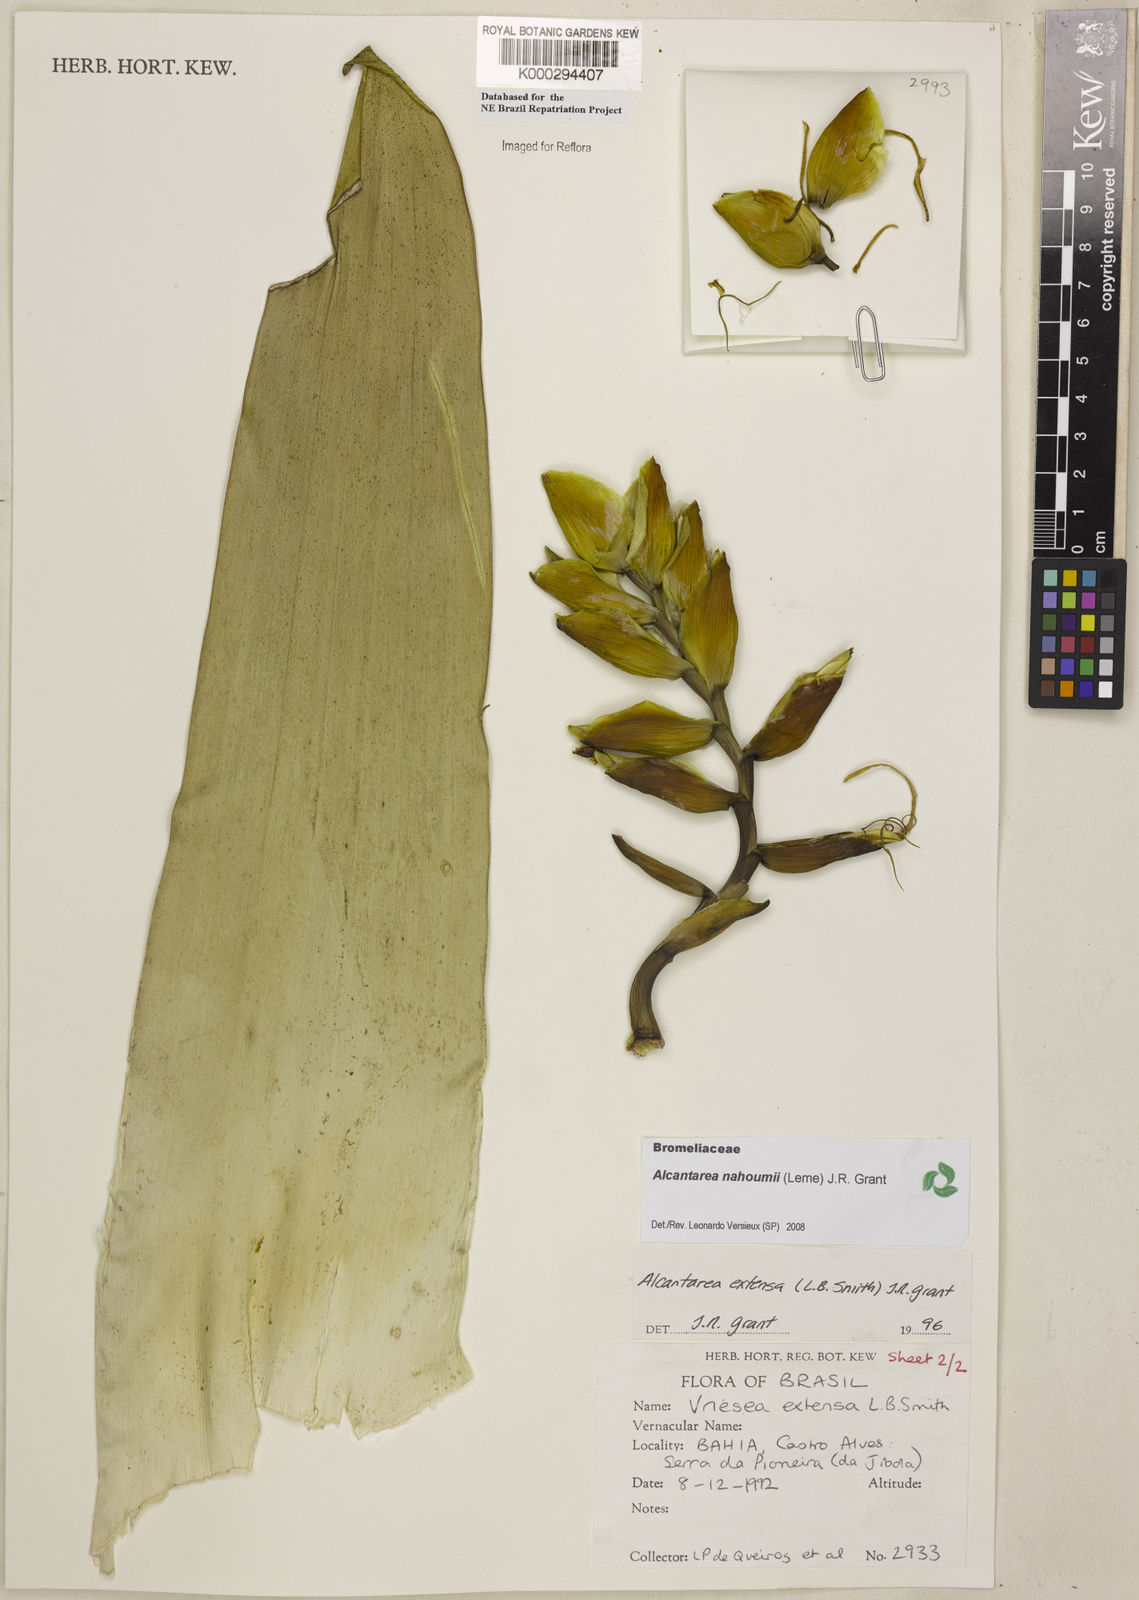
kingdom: Plantae
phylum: Tracheophyta
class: Liliopsida
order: Poales
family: Bromeliaceae
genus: Alcantarea
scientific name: Alcantarea nahoumii
